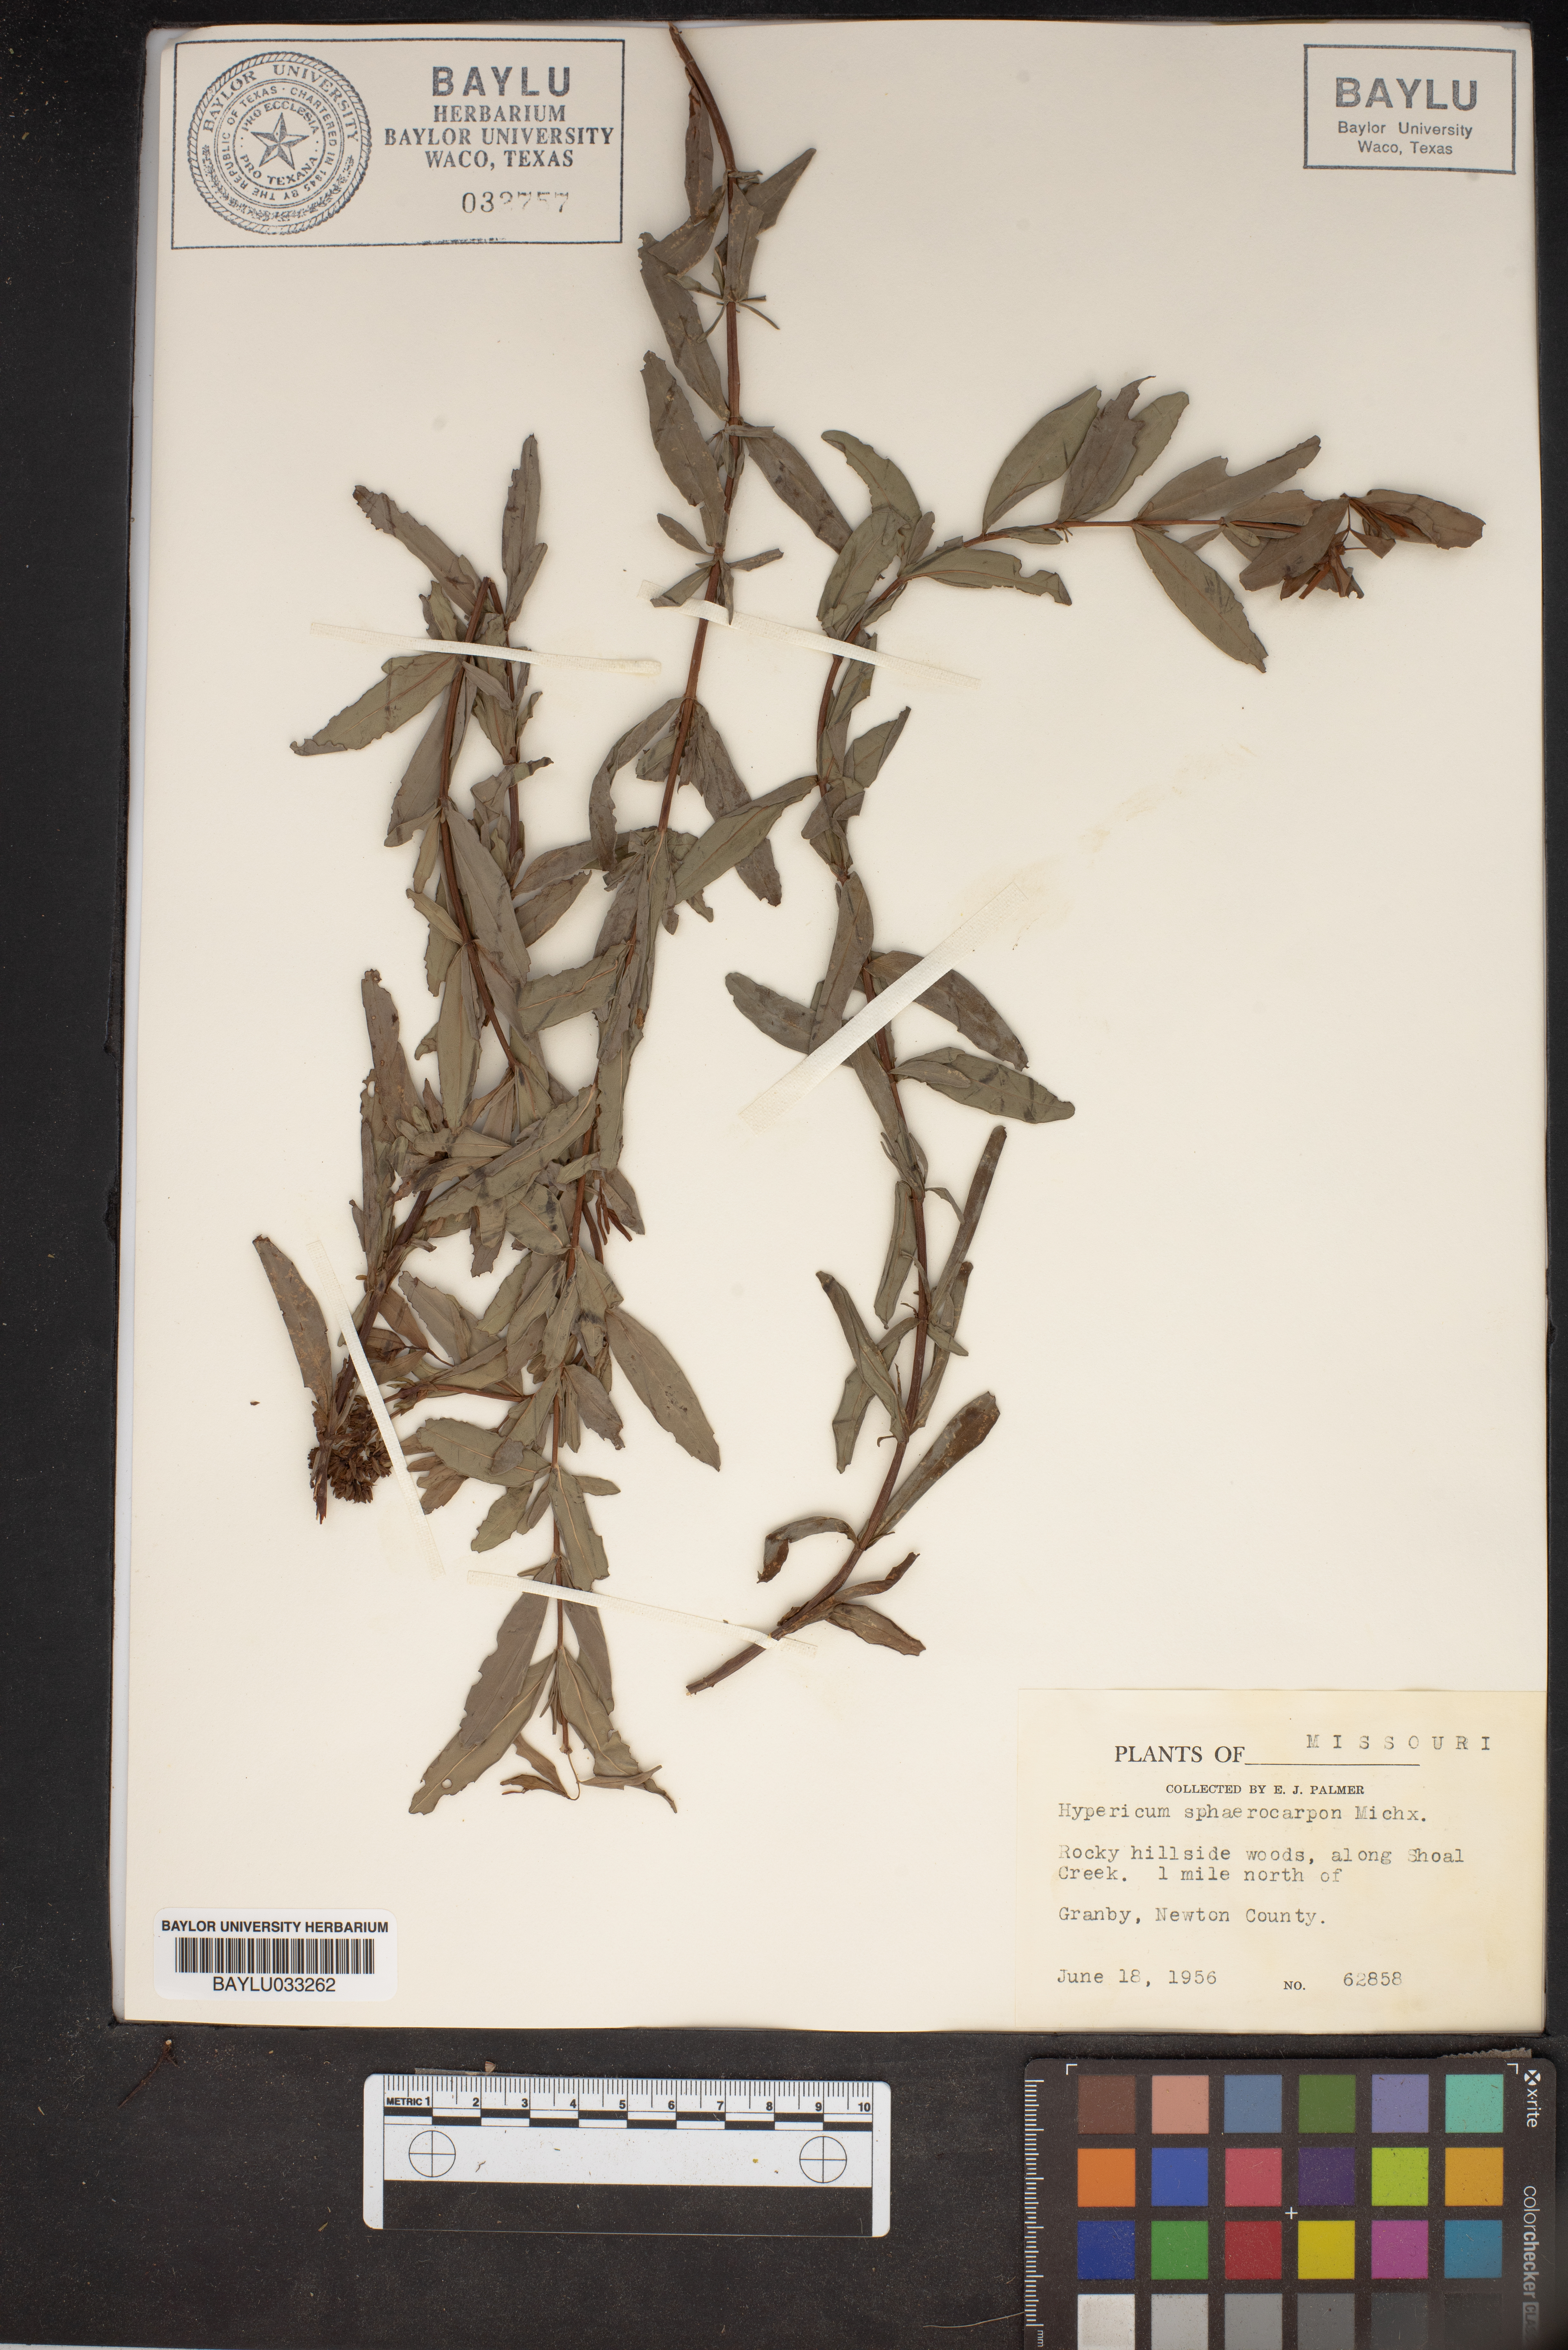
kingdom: Plantae
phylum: Tracheophyta
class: Magnoliopsida
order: Malpighiales
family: Hypericaceae
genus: Hypericum
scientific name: Hypericum sphaerocarpum
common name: Round-fruited st. john's-wort
